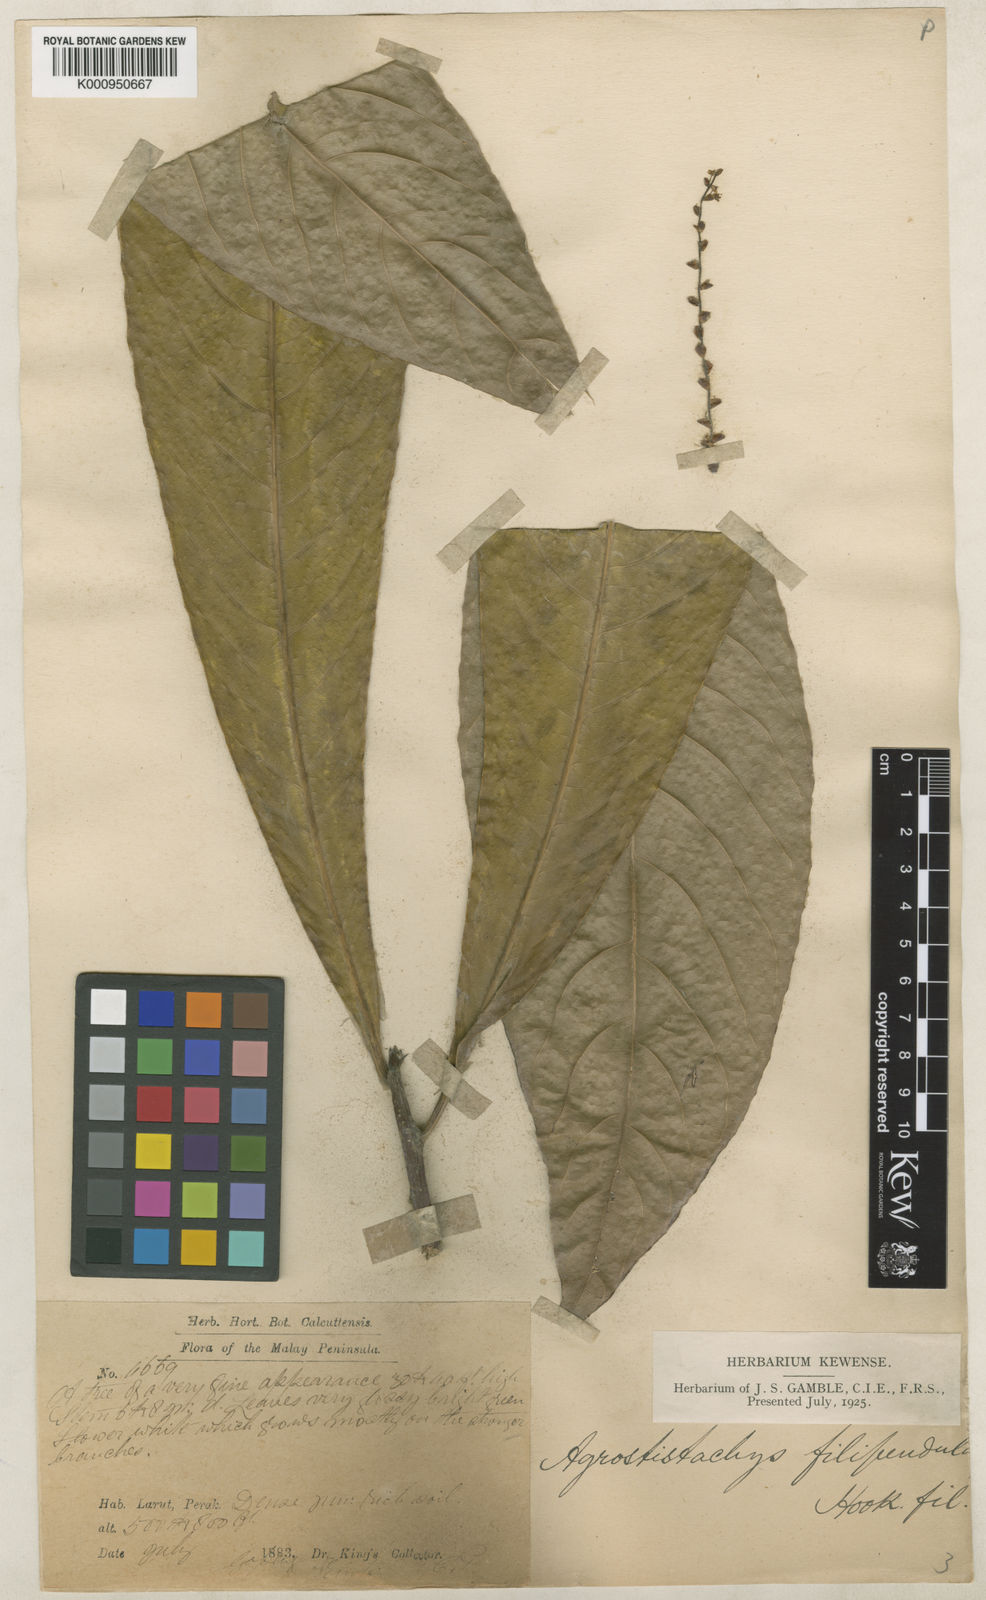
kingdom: Plantae
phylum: Tracheophyta
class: Magnoliopsida
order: Malpighiales
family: Euphorbiaceae
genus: Agrostistachys
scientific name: Agrostistachys gaudichaudii
